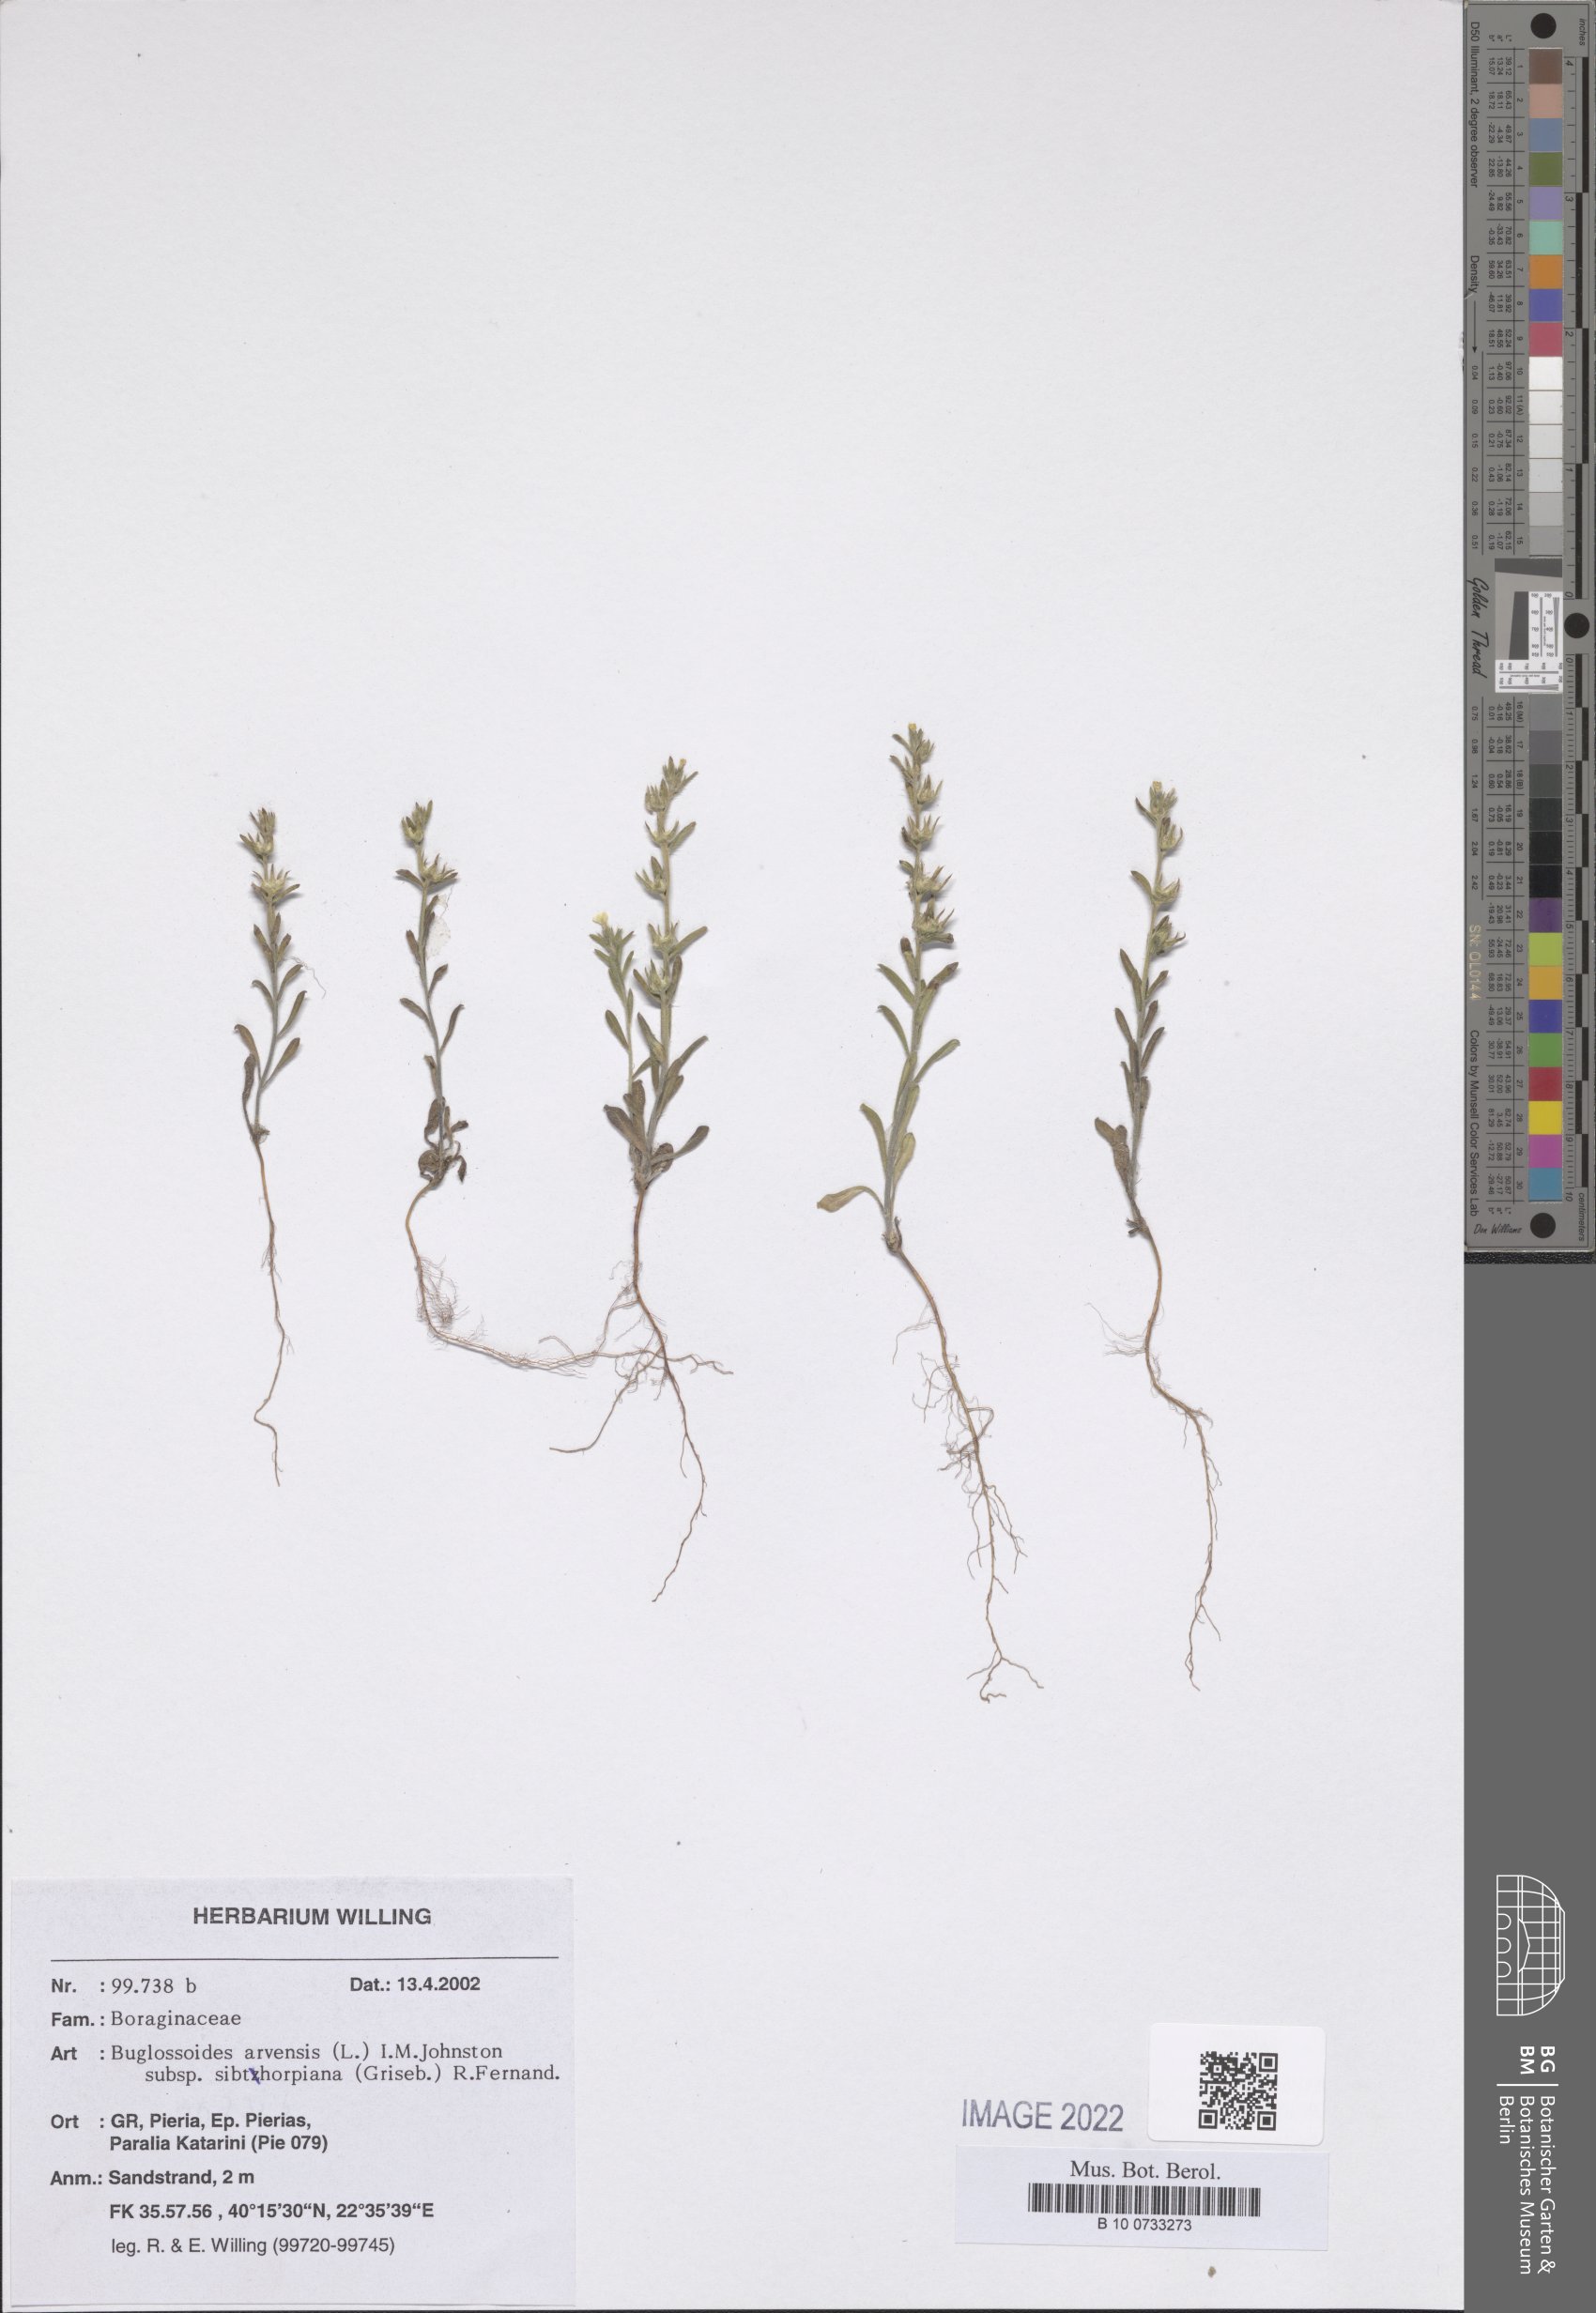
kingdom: Plantae
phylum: Tracheophyta
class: Magnoliopsida
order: Boraginales
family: Boraginaceae
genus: Buglossoides
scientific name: Buglossoides arvensis
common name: Corn gromwell
